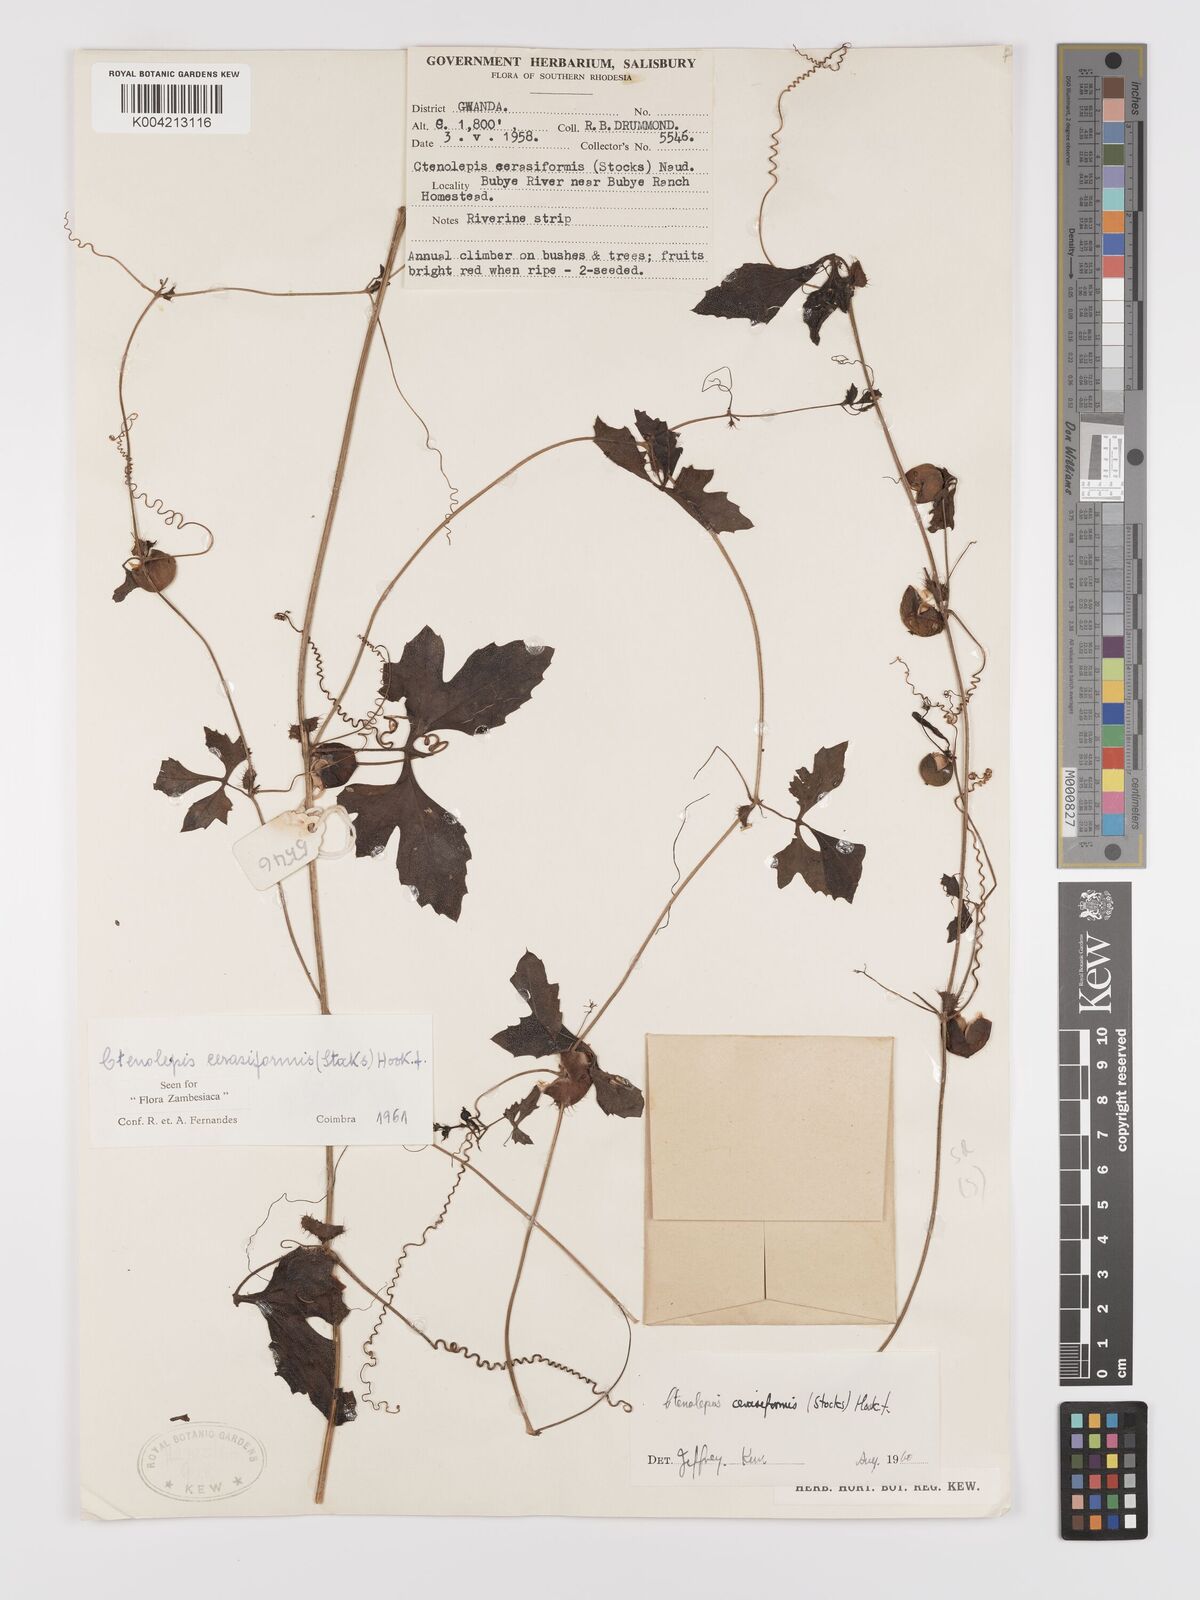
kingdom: Plantae
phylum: Tracheophyta
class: Magnoliopsida
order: Cucurbitales
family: Cucurbitaceae
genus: Blastania
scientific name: Blastania cerasiformis
